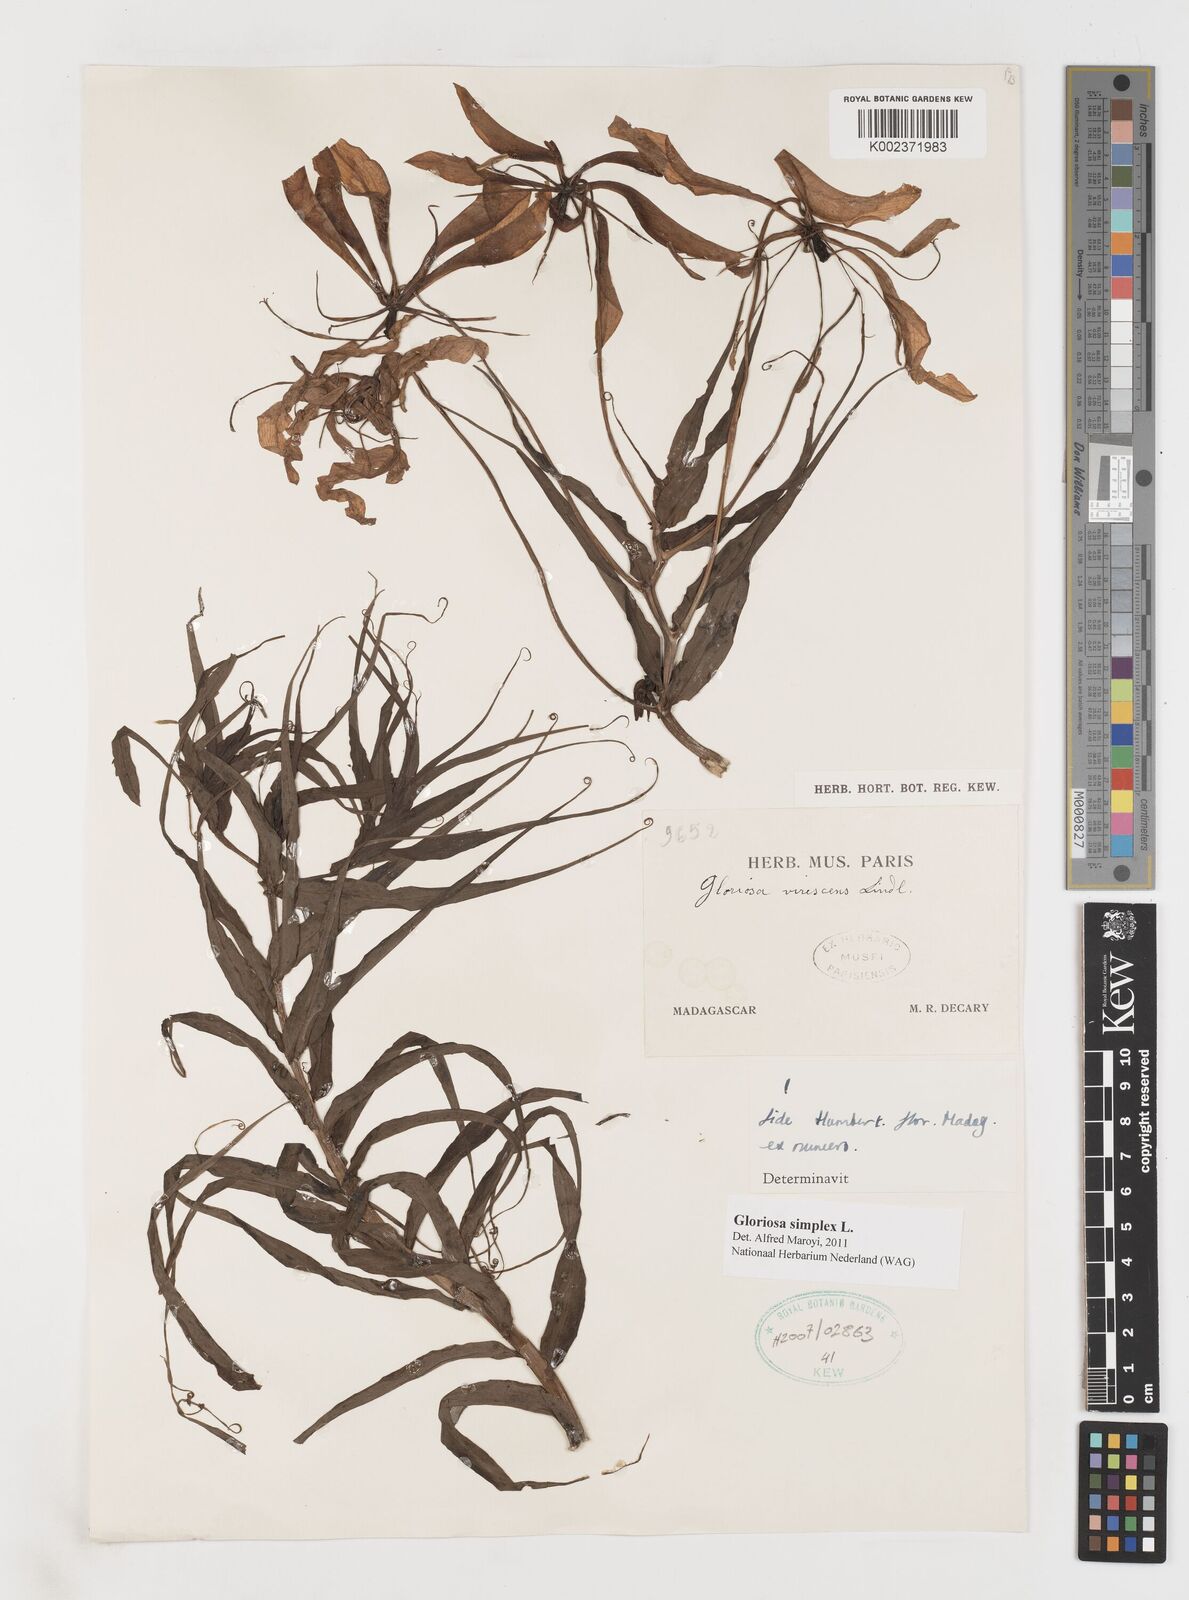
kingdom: Plantae
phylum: Tracheophyta
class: Liliopsida
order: Liliales
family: Colchicaceae
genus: Gloriosa
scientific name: Gloriosa simplex
